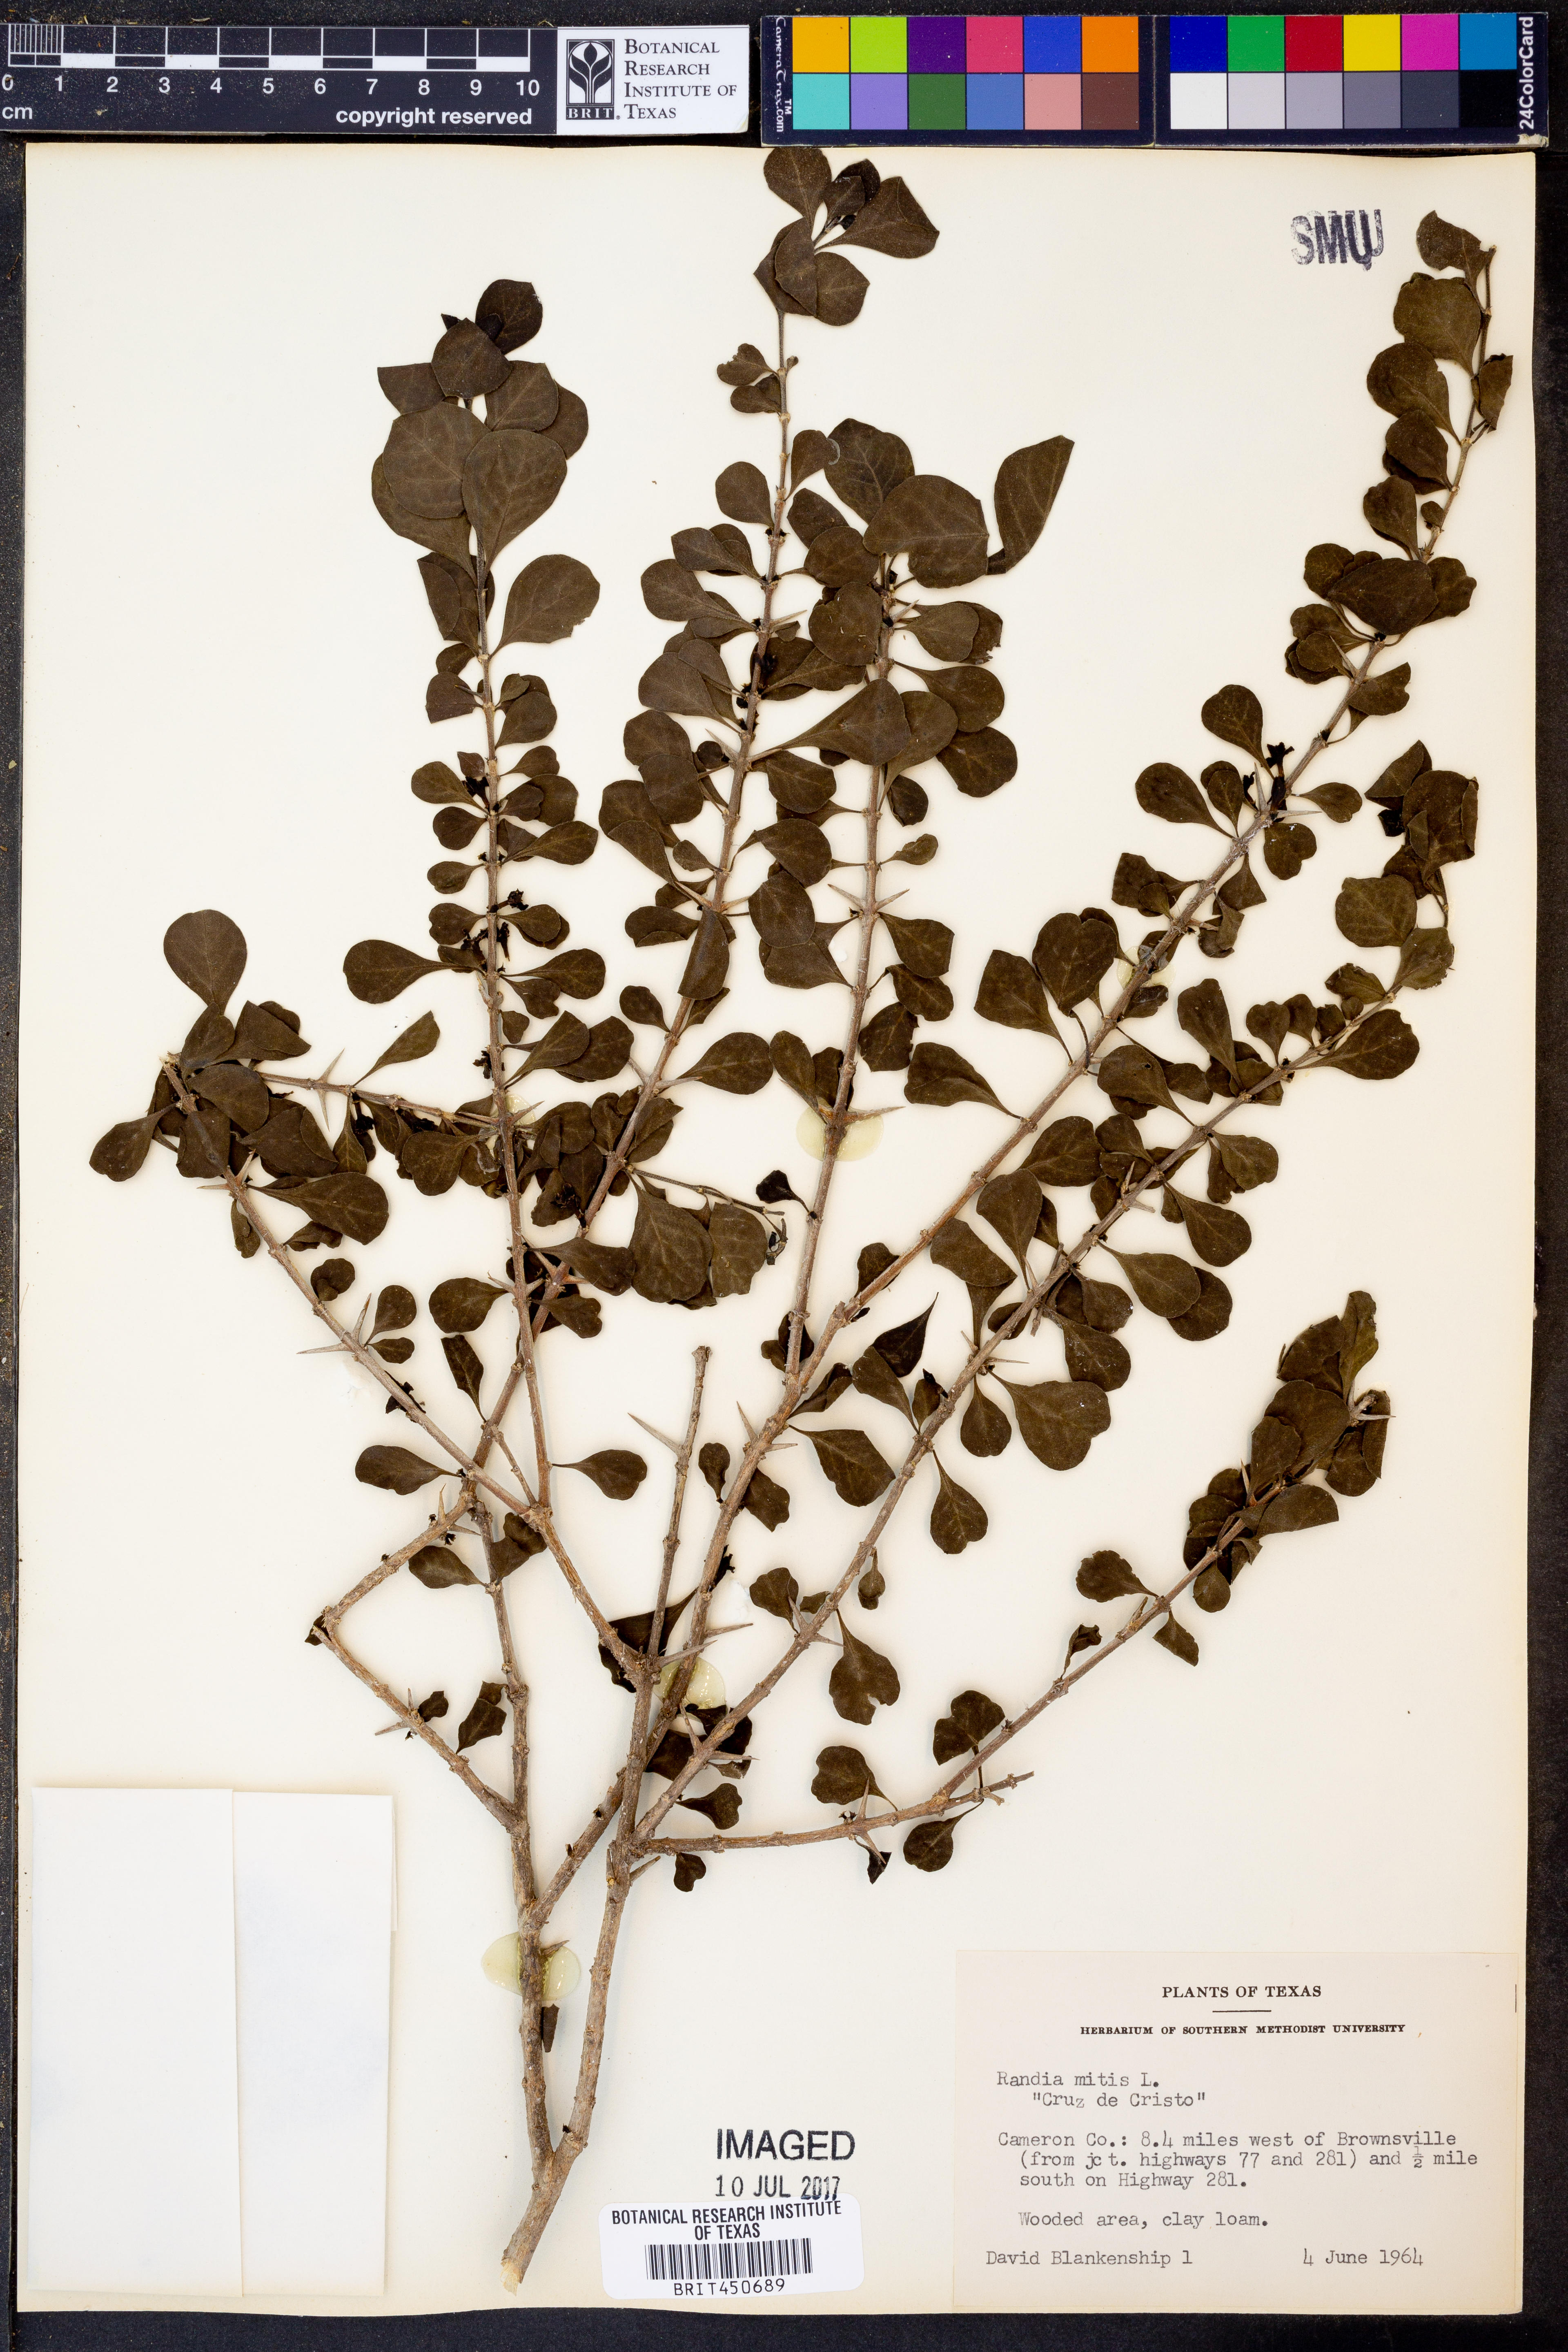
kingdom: Plantae
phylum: Tracheophyta
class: Magnoliopsida
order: Gentianales
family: Rubiaceae
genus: Randia
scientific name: Randia aculeata
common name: Inkberry
